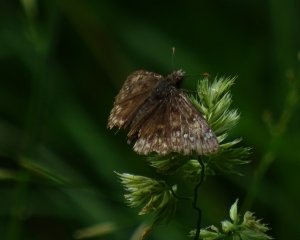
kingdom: Animalia
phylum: Arthropoda
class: Insecta
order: Lepidoptera
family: Hesperiidae
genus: Gesta
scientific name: Gesta
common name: Juvenal's Duskywing
